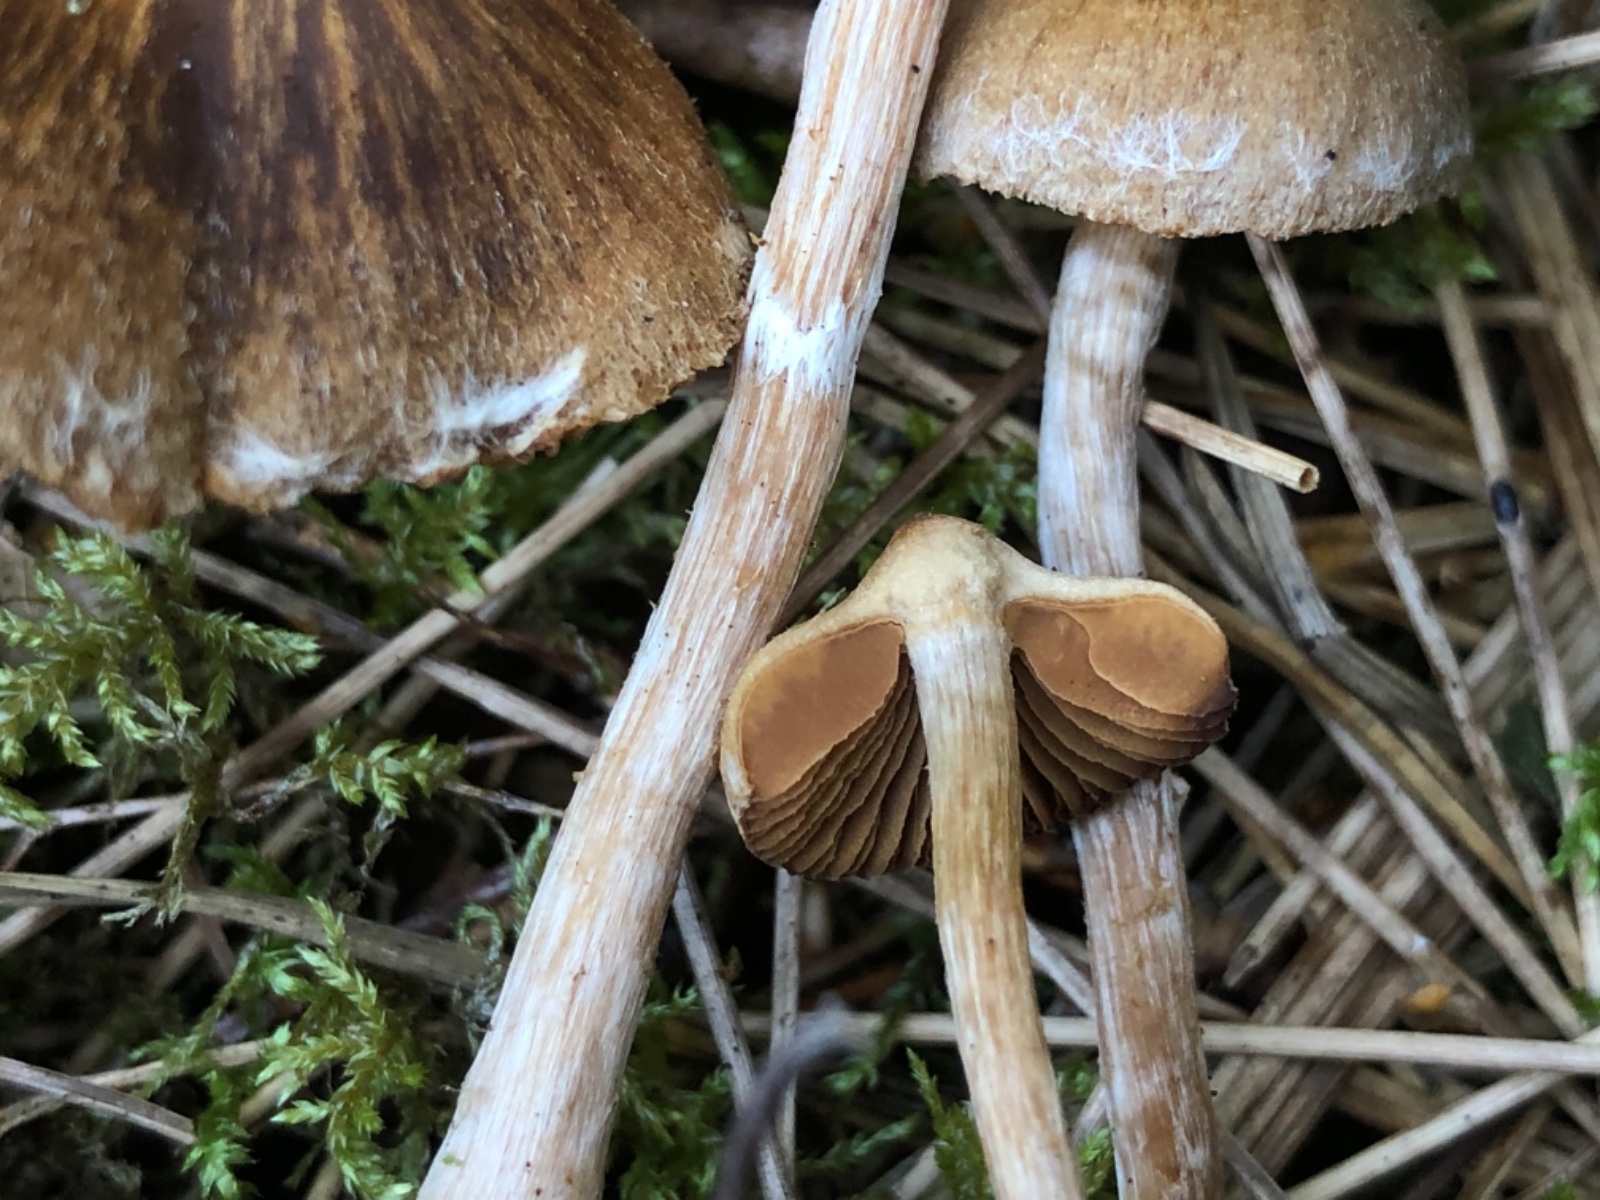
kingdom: Fungi
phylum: Basidiomycota
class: Agaricomycetes
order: Agaricales
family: Cortinariaceae
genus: Cortinarius
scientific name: Cortinarius flabellus
